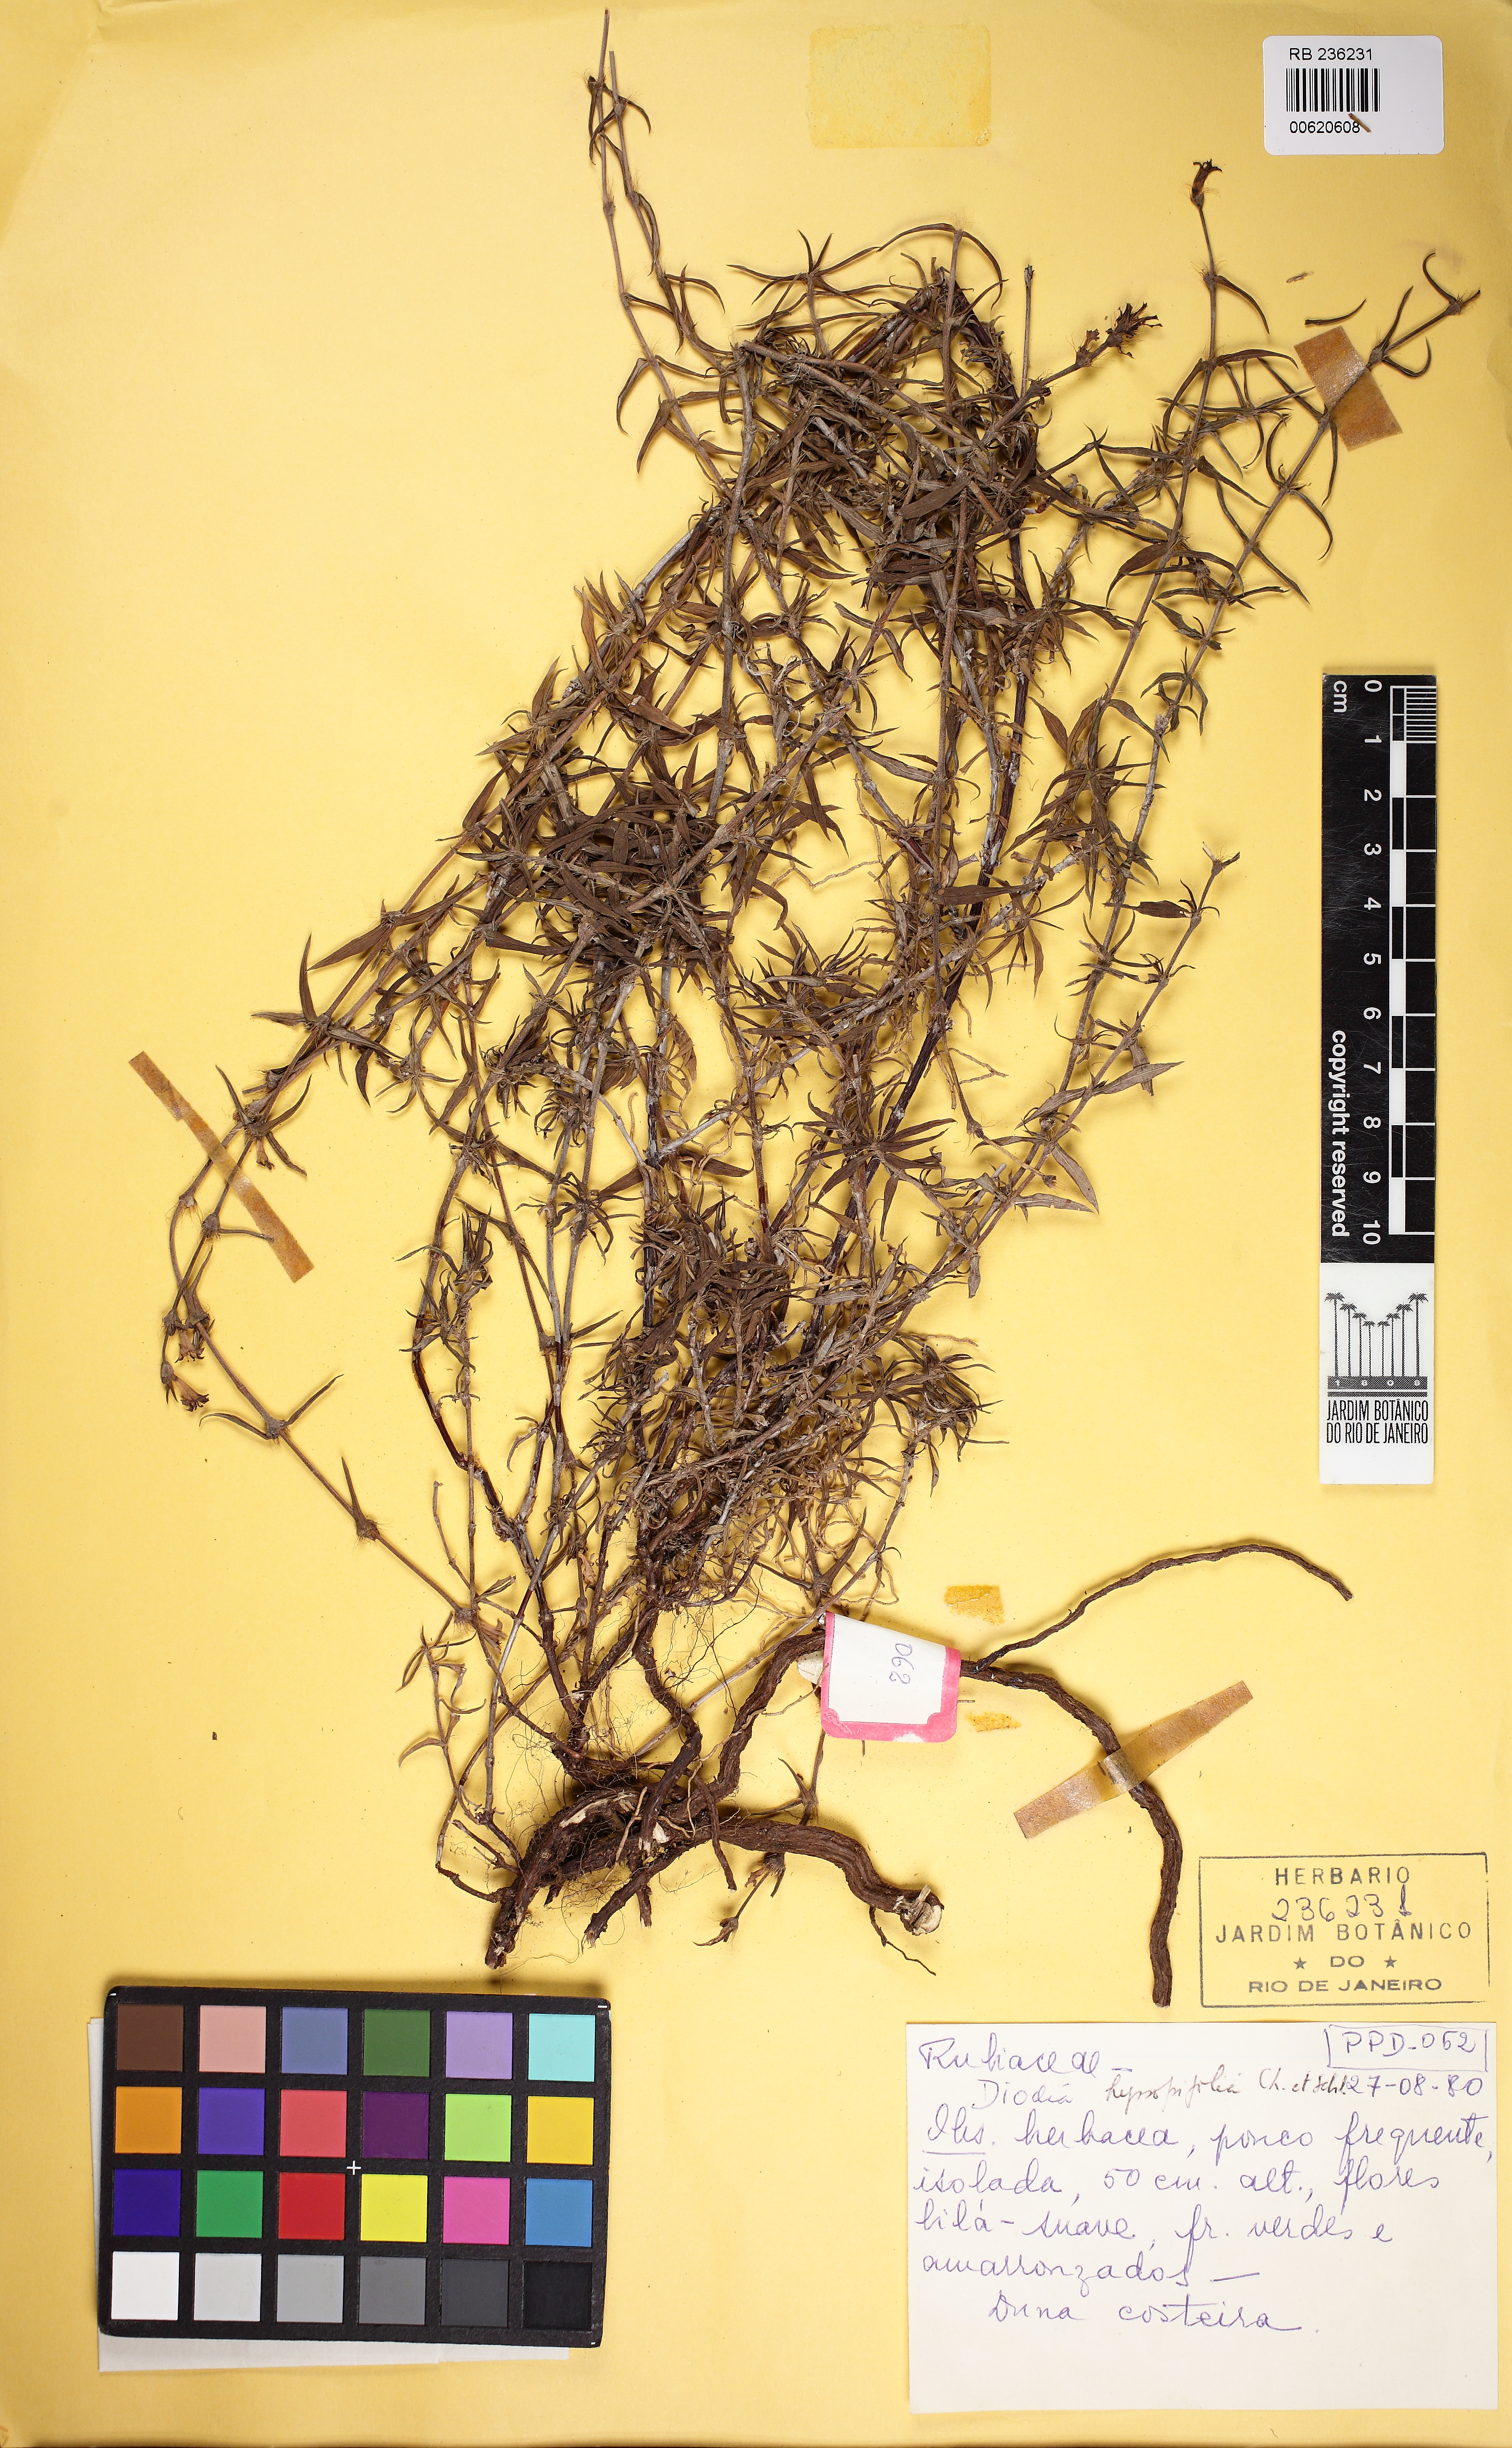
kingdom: Plantae
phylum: Tracheophyta
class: Magnoliopsida
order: Gentianales
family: Rubiaceae
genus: Spermacoce
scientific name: Spermacoce hyssopifolia
